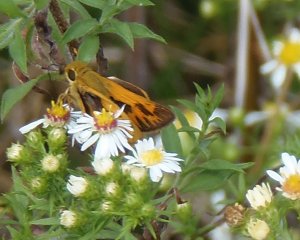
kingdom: Animalia
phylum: Arthropoda
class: Insecta
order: Lepidoptera
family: Hesperiidae
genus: Hylephila
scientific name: Hylephila phyleus
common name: Fiery Skipper
